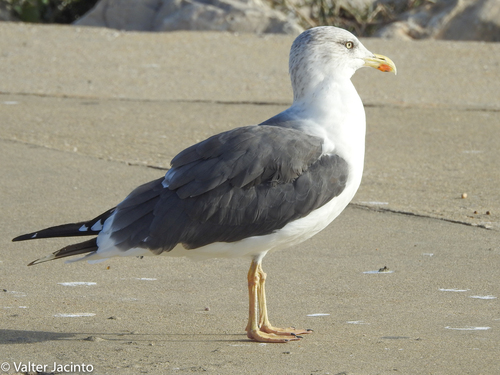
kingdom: Animalia
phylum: Chordata
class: Aves
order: Charadriiformes
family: Laridae
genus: Larus
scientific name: Larus fuscus
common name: Lesser black-backed gull
